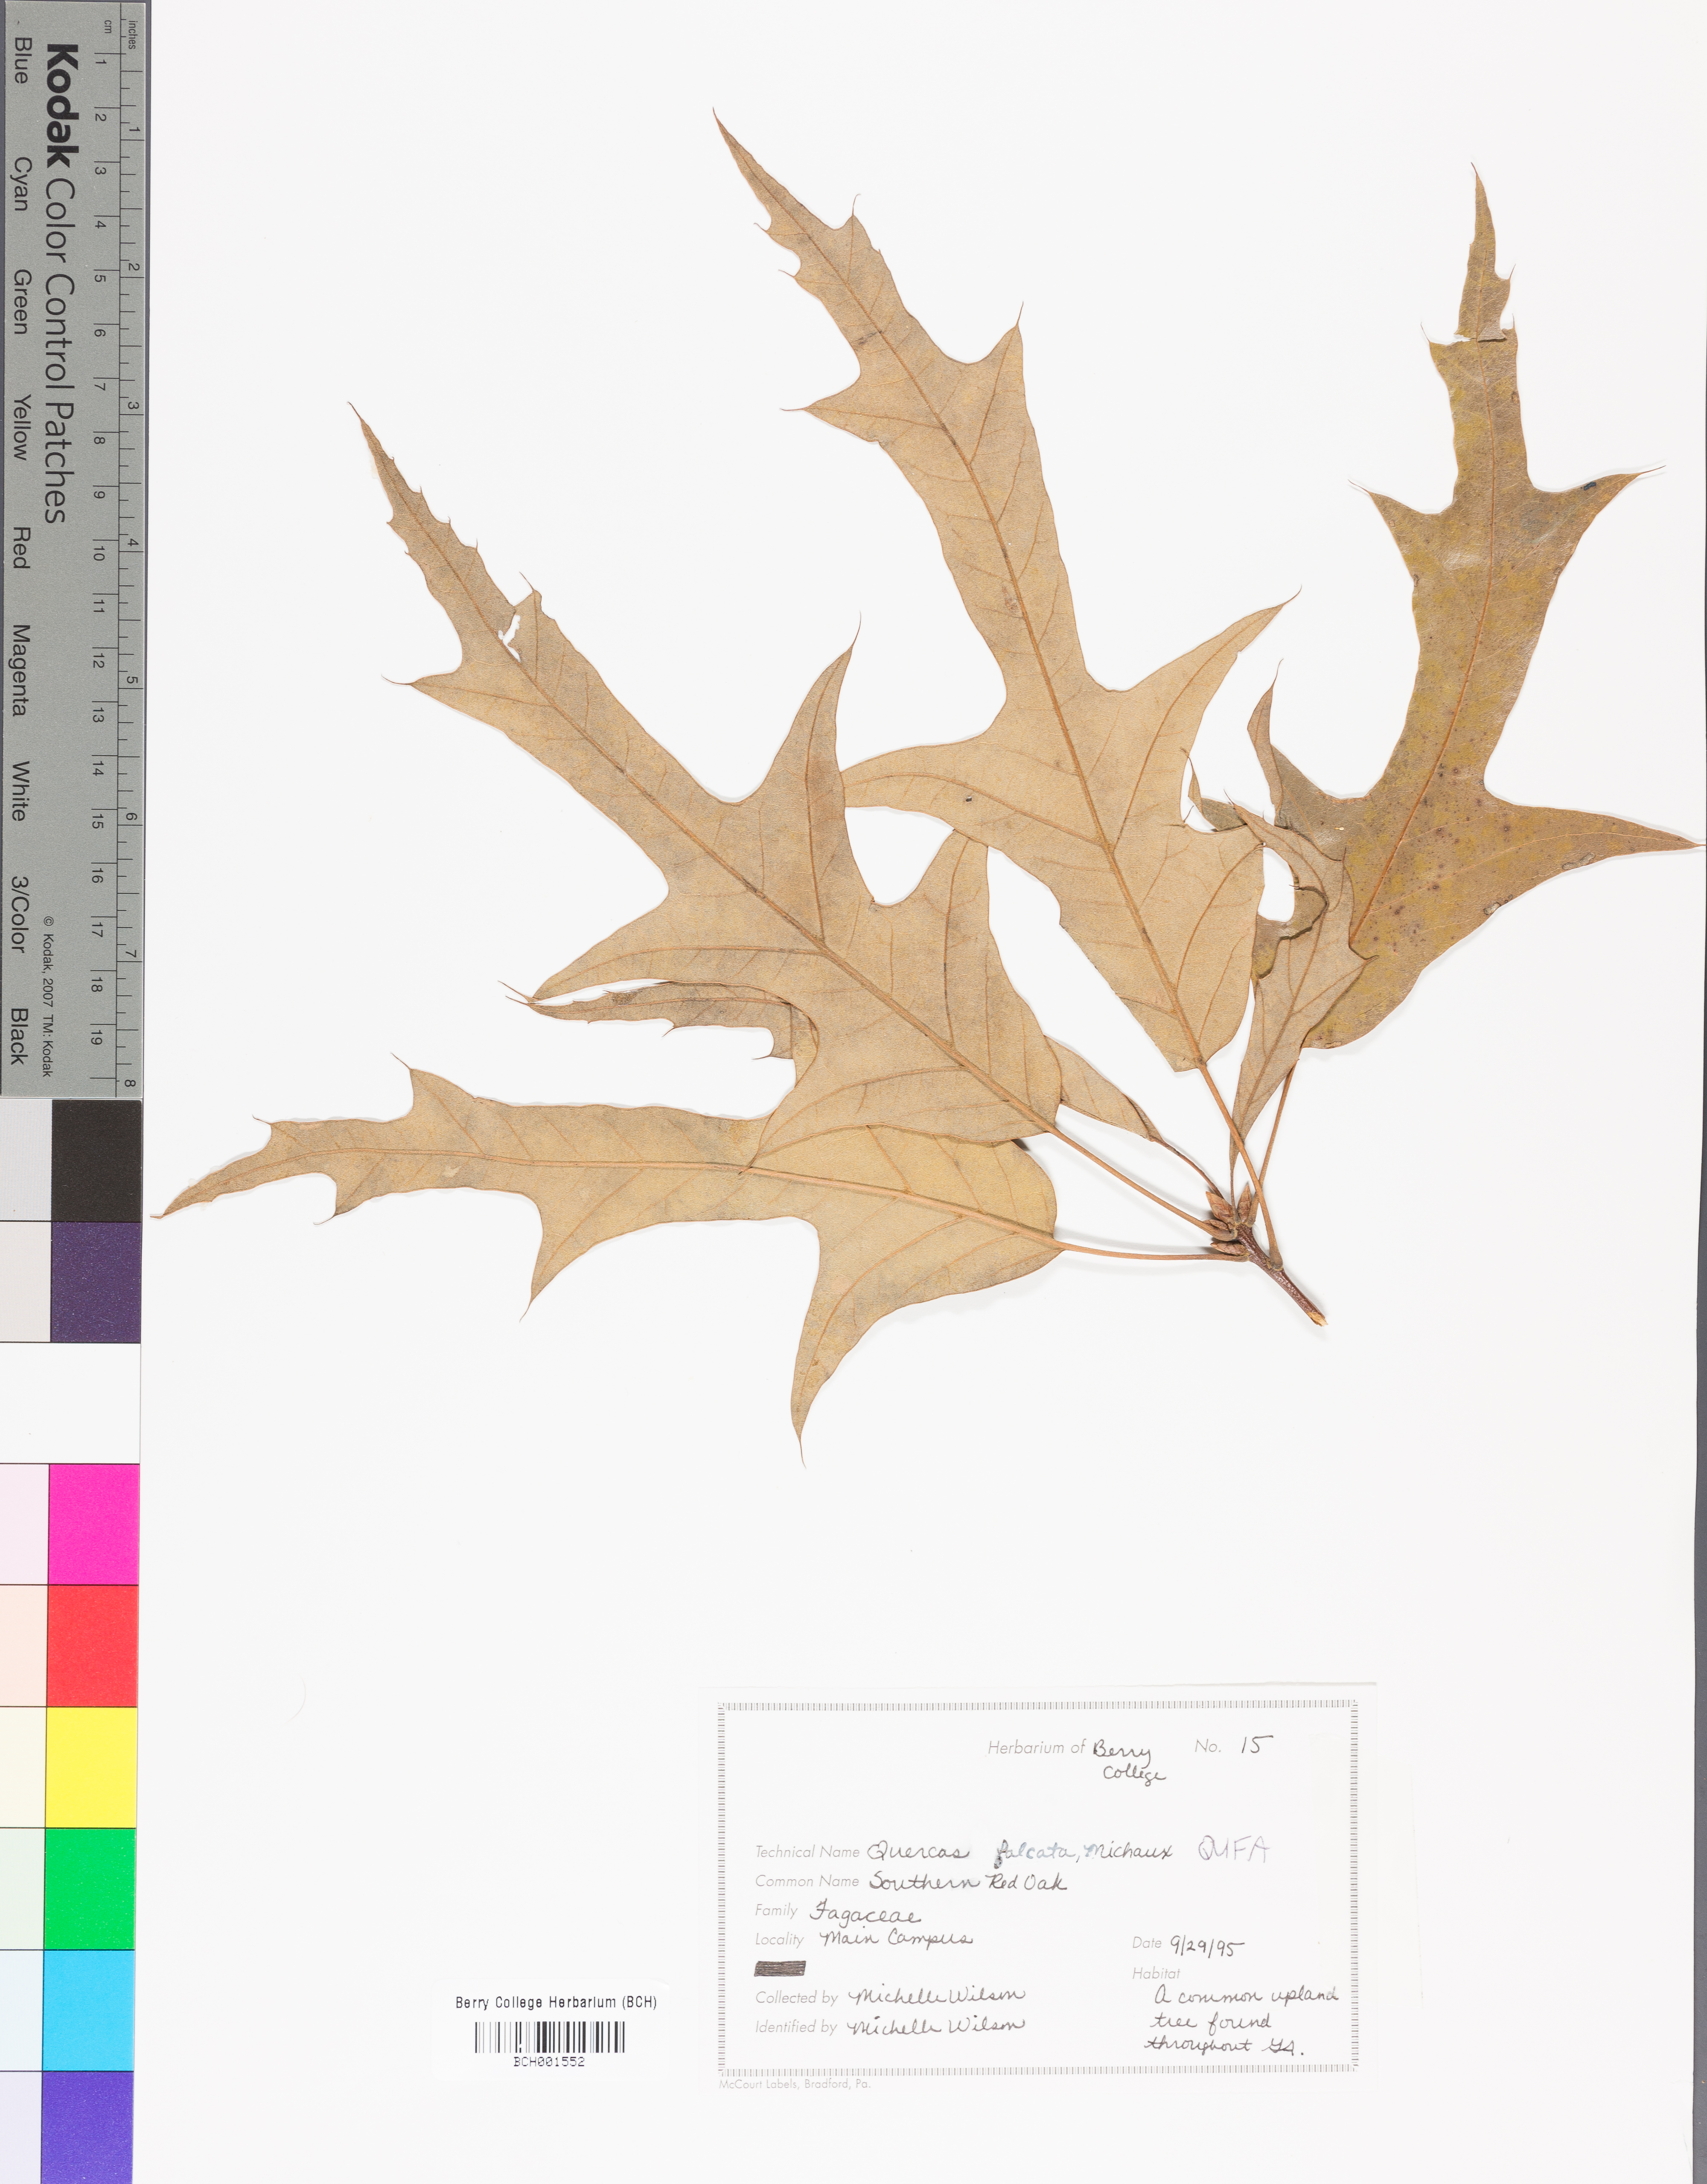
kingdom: Plantae
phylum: Tracheophyta
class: Magnoliopsida
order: Fagales
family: Fagaceae
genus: Quercus
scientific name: Quercus falcata
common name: Southern red oak
